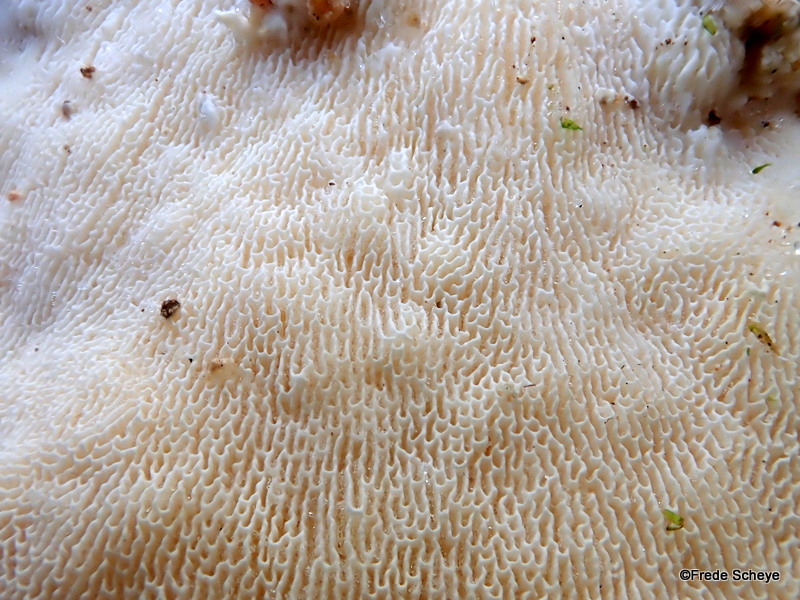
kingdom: Fungi
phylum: Basidiomycota
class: Agaricomycetes
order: Polyporales
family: Polyporaceae
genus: Trametes
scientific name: Trametes gibbosa
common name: puklet læderporesvamp
